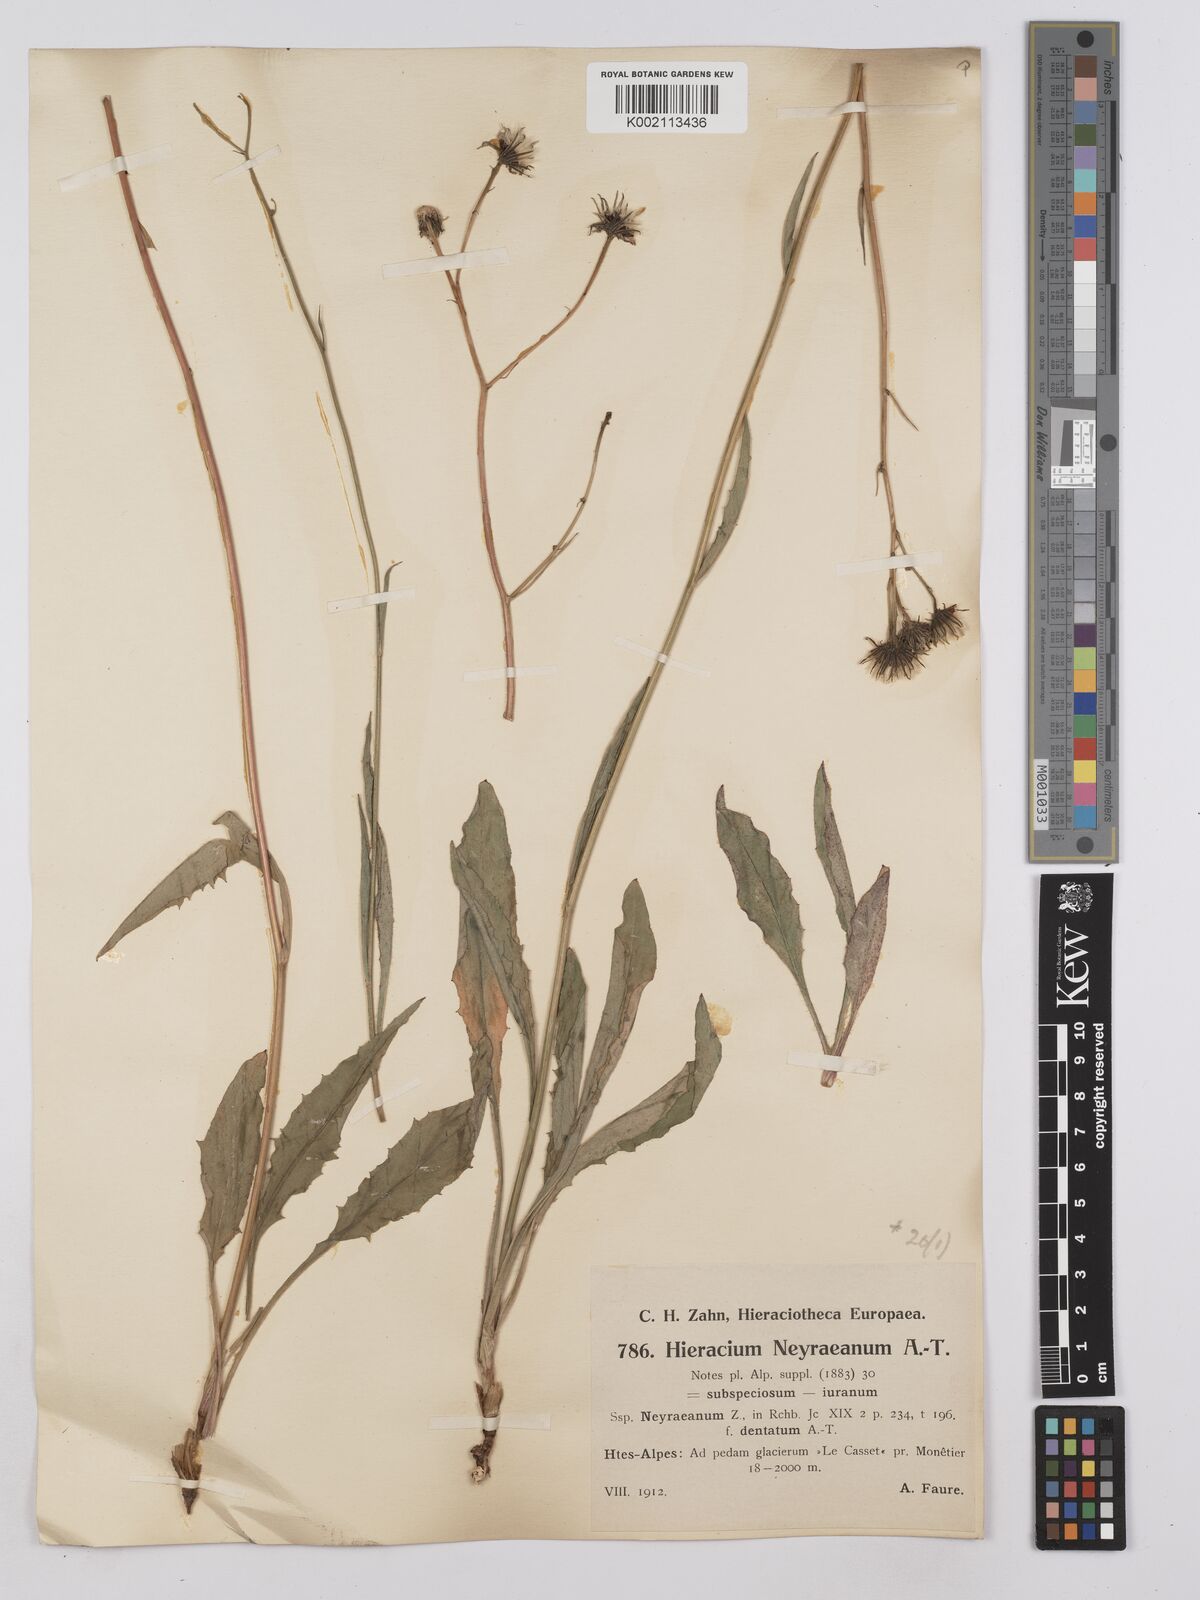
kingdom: Plantae
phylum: Tracheophyta
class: Magnoliopsida
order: Asterales
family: Asteraceae
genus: Hieracium
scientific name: Hieracium neyranum
